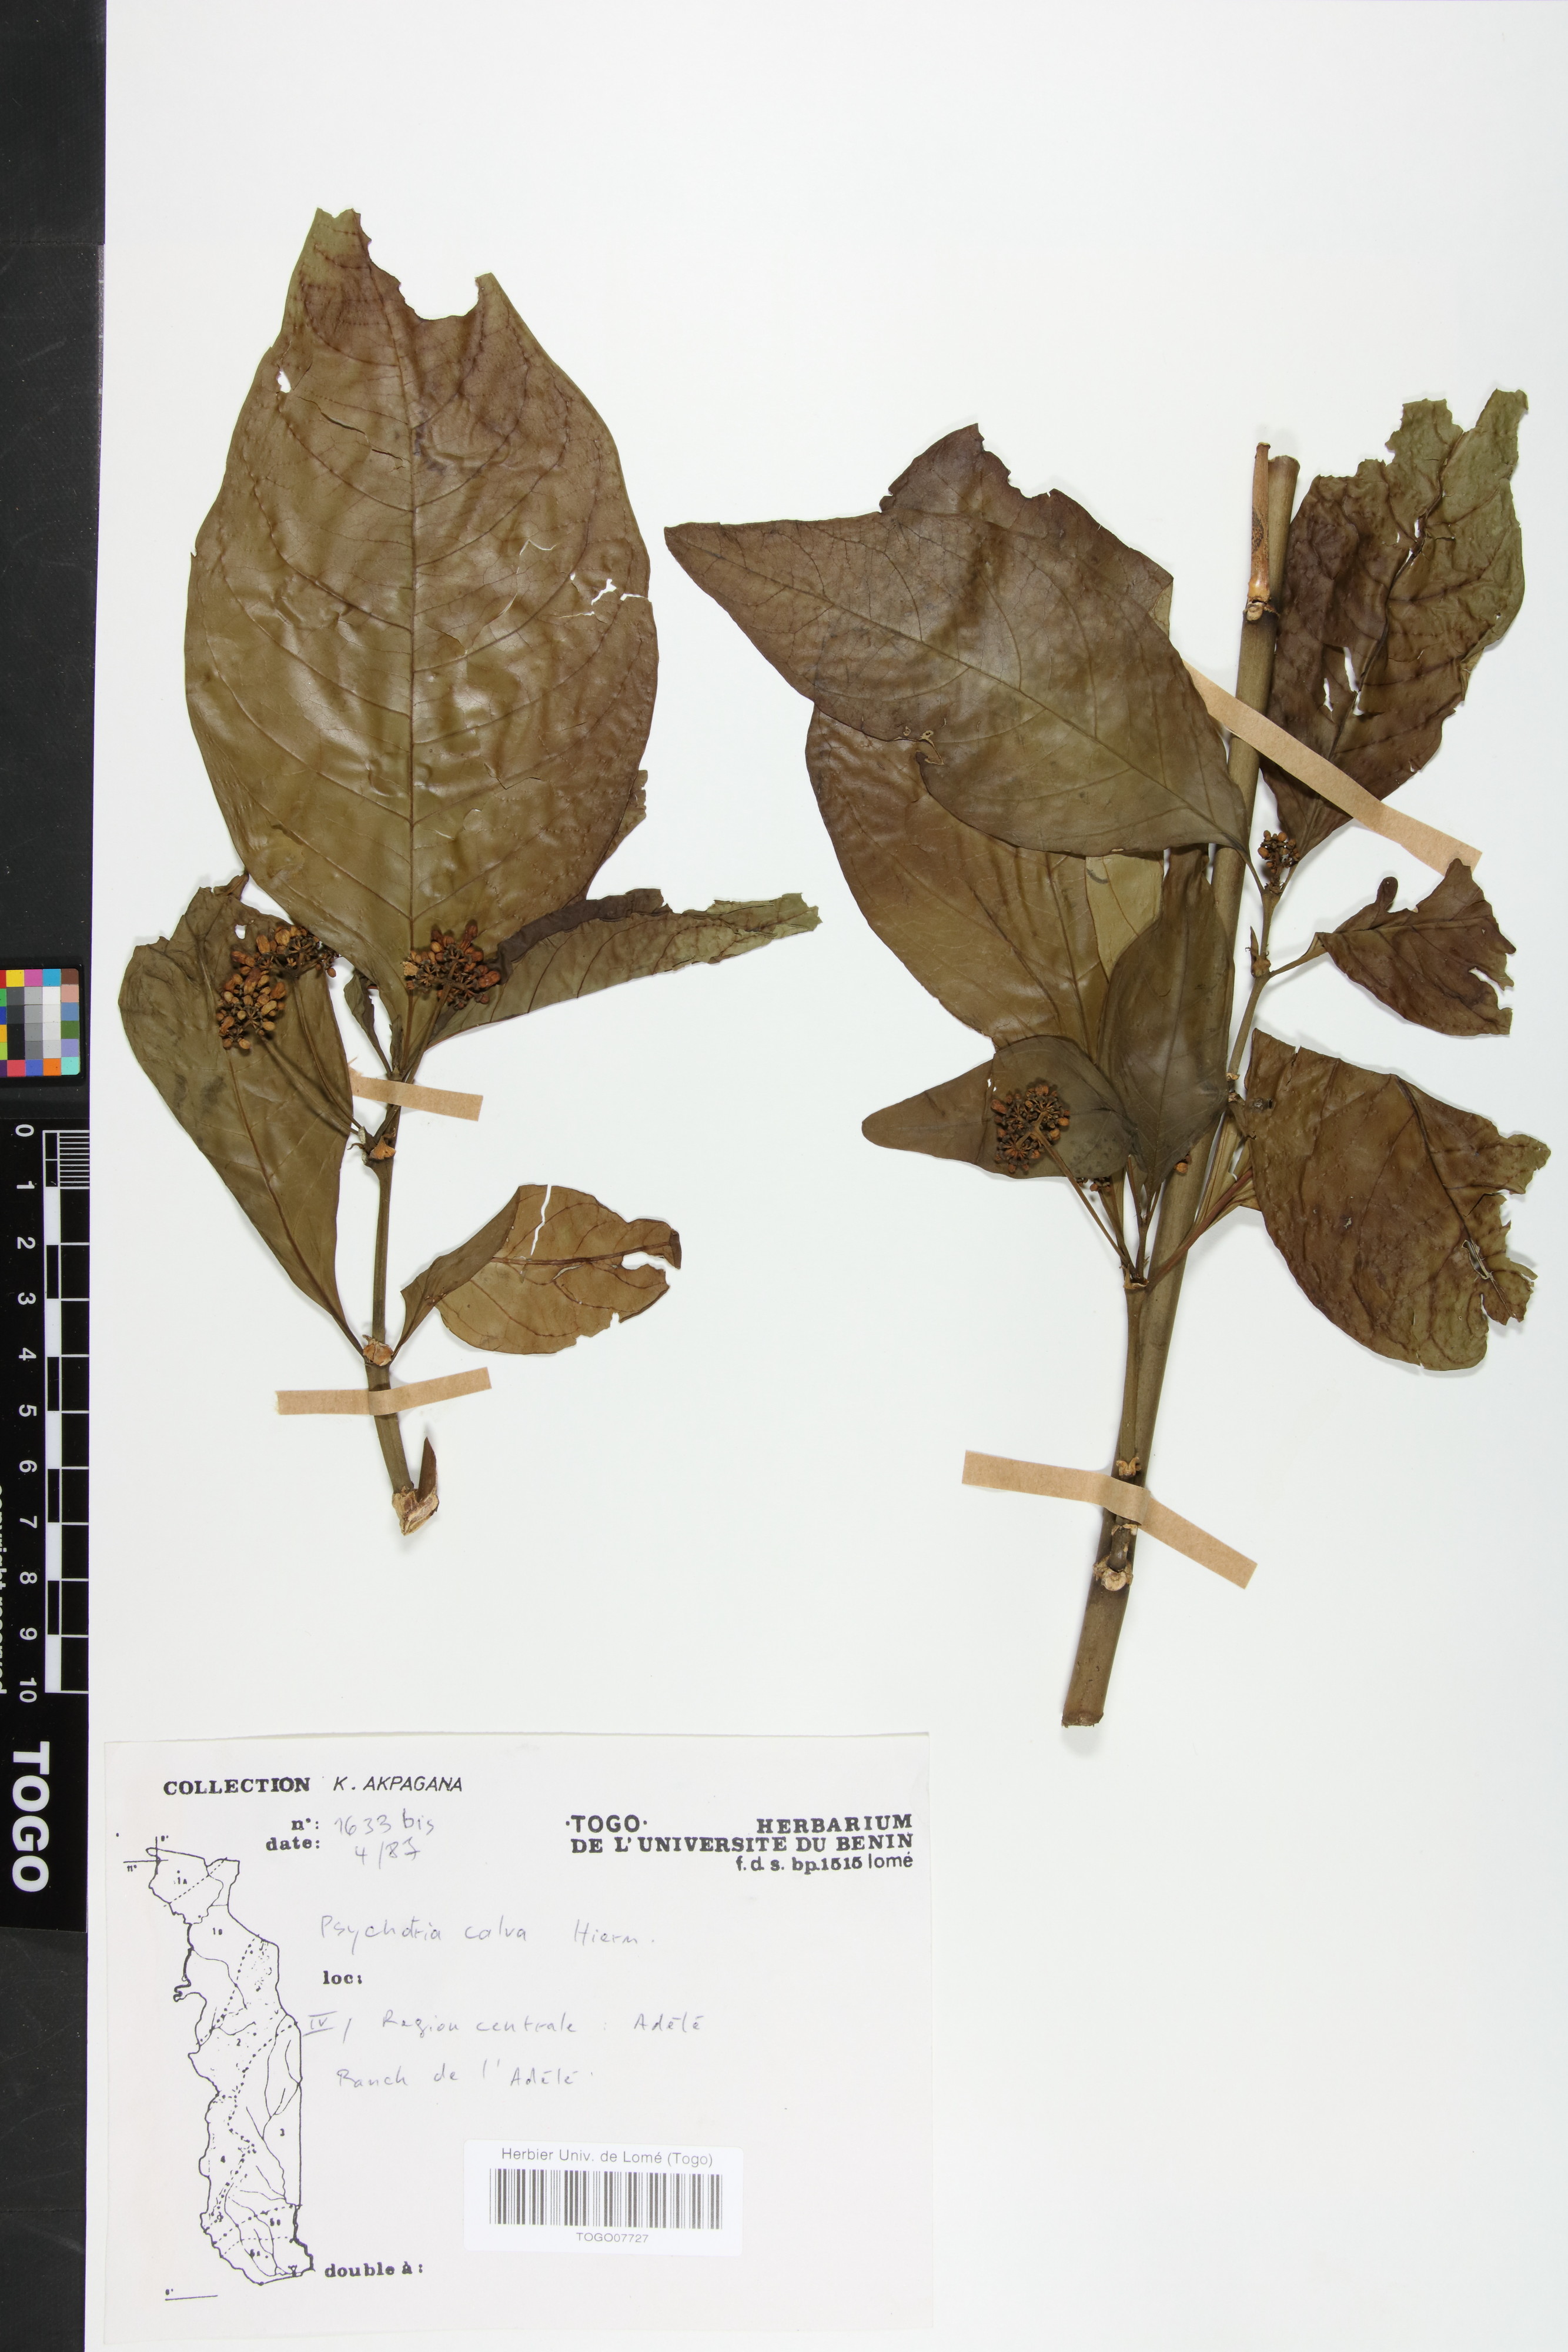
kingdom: Plantae
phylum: Tracheophyta
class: Magnoliopsida
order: Gentianales
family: Rubiaceae
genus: Psychotria
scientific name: Psychotria calva
